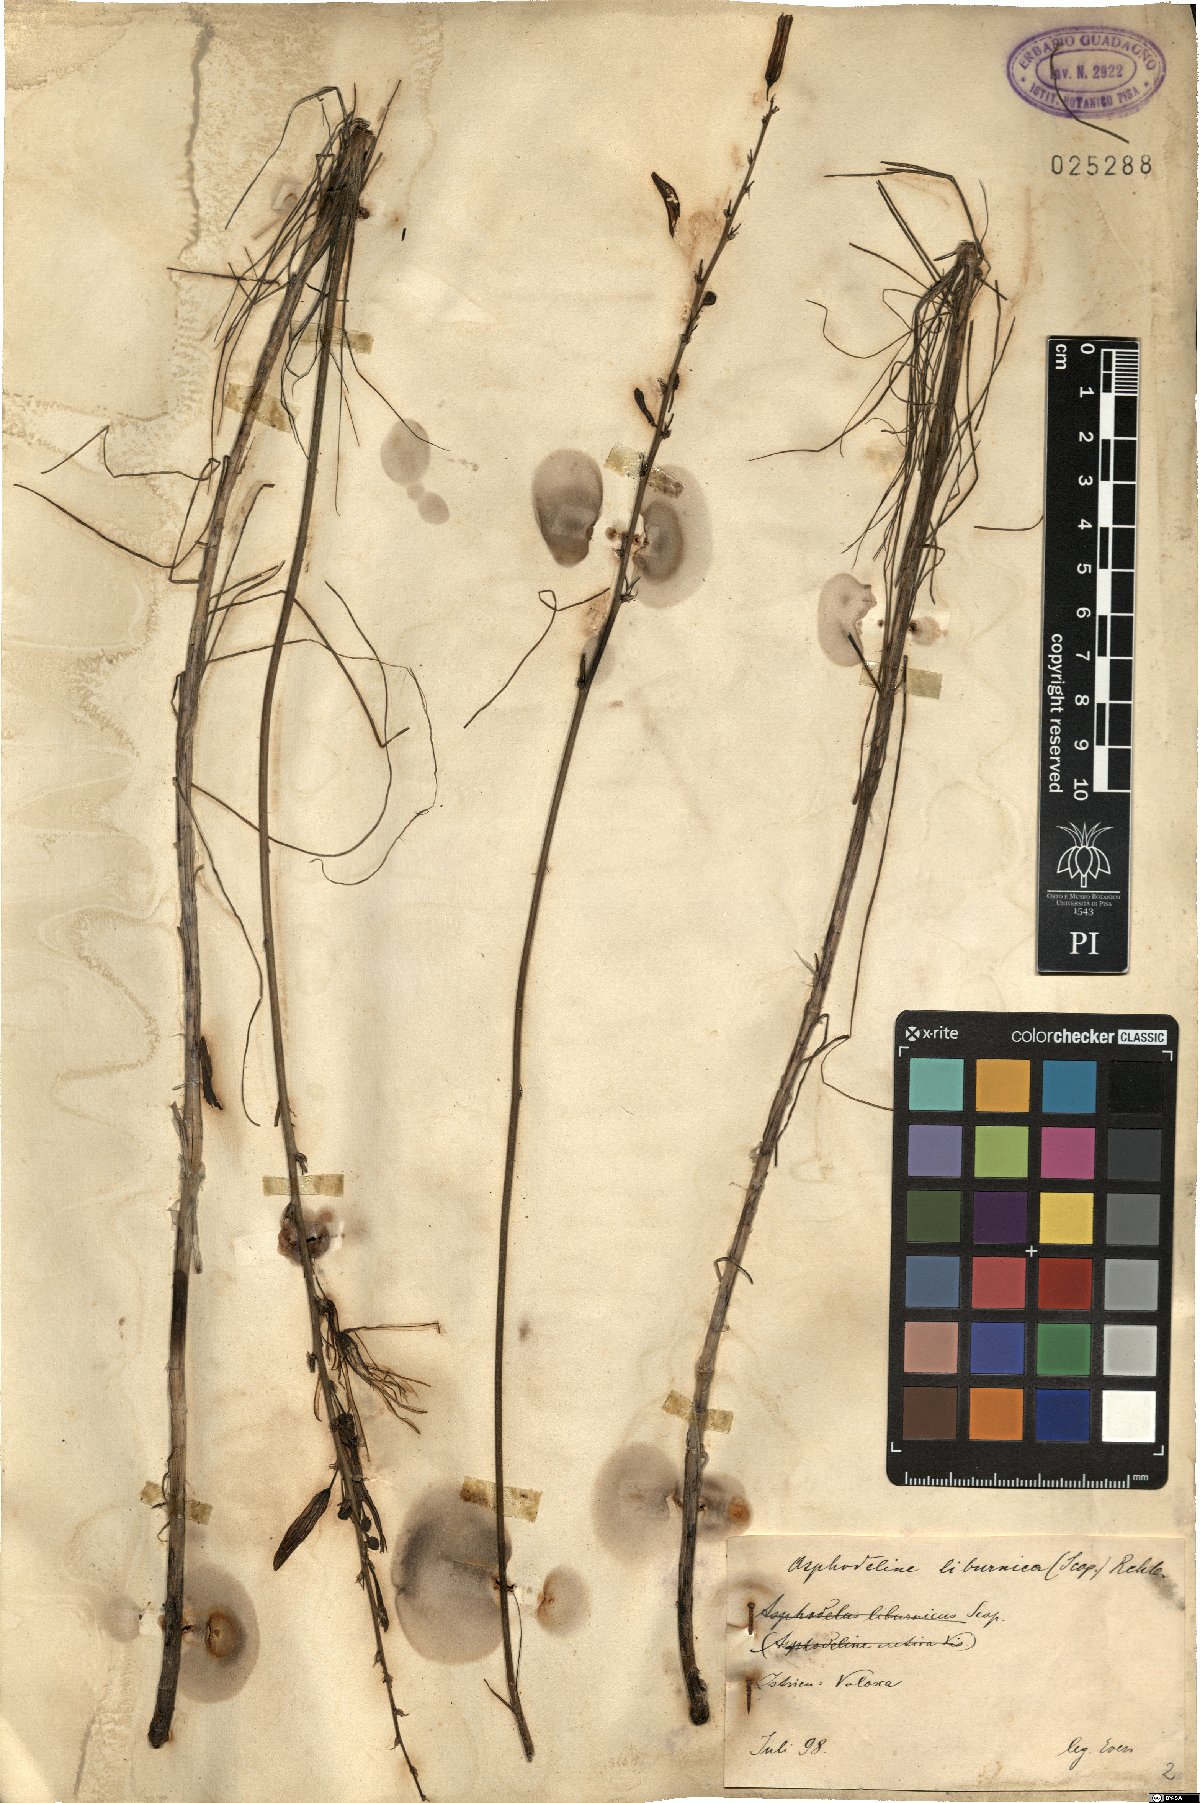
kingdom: Plantae
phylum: Tracheophyta
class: Liliopsida
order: Asparagales
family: Asphodelaceae
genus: Asphodeline
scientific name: Asphodeline liburnica
